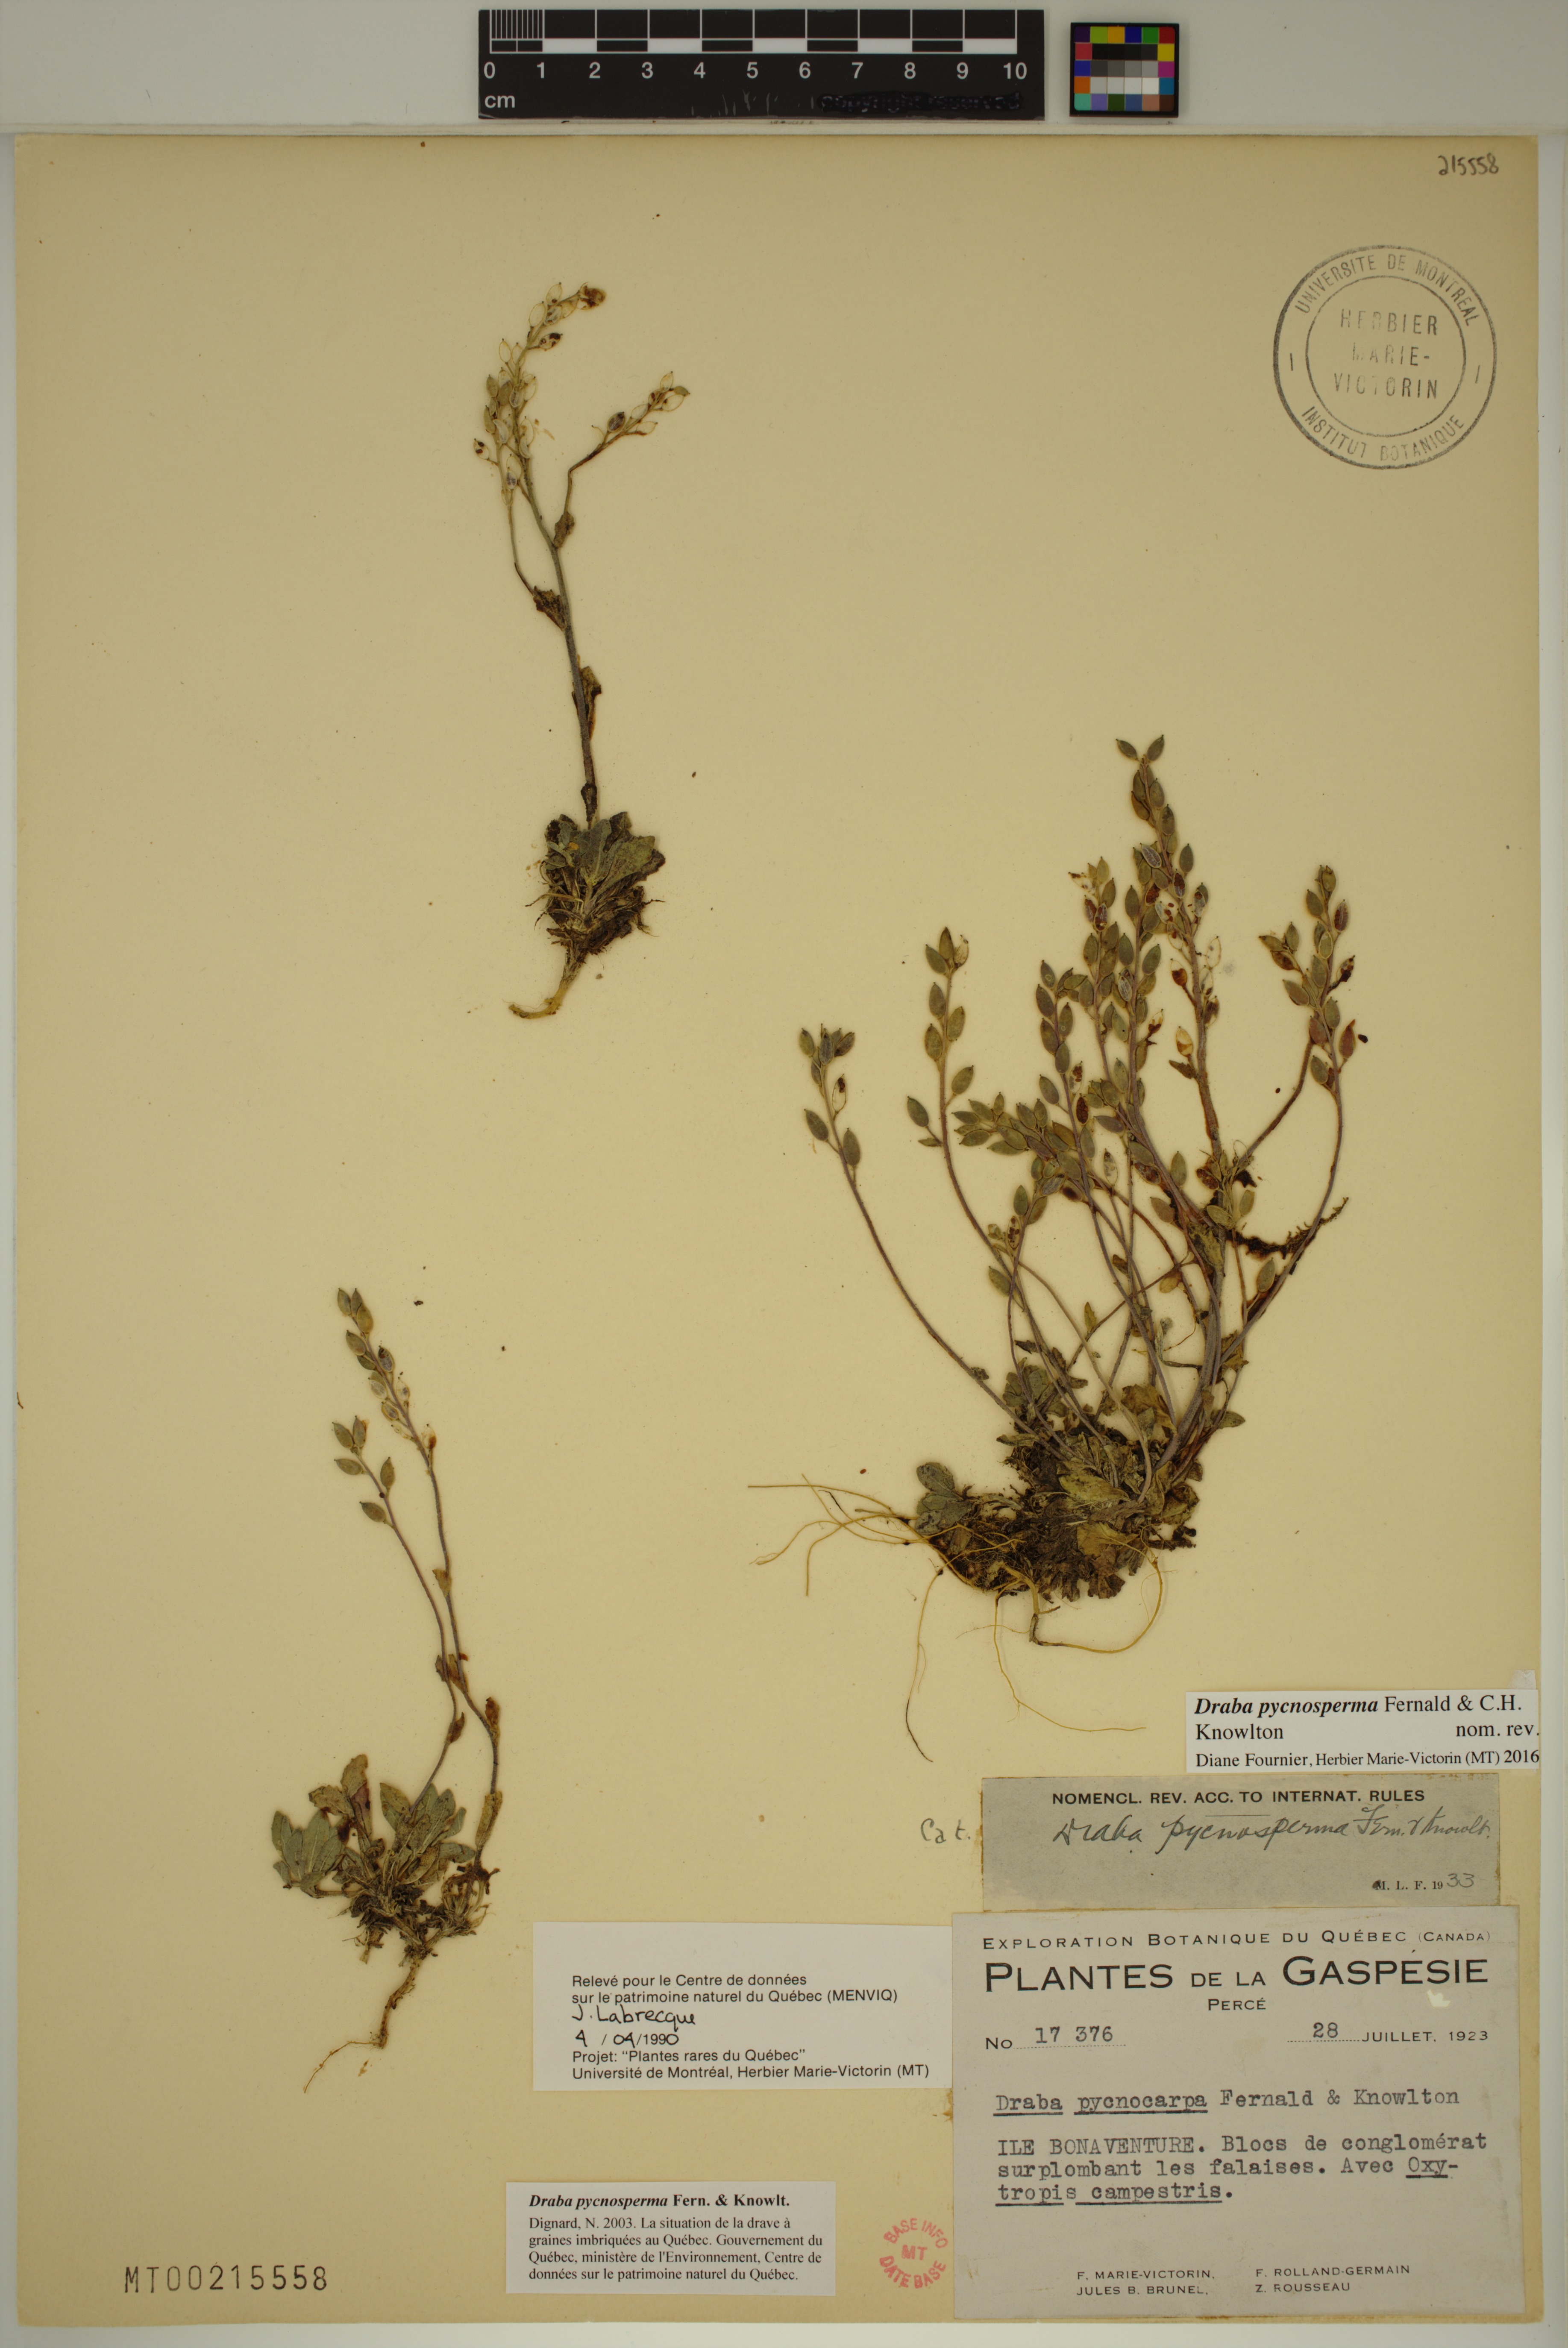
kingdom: Plantae
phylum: Tracheophyta
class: Magnoliopsida
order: Brassicales
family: Brassicaceae
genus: Draba
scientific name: Draba pycnosperma
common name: Dense draba
